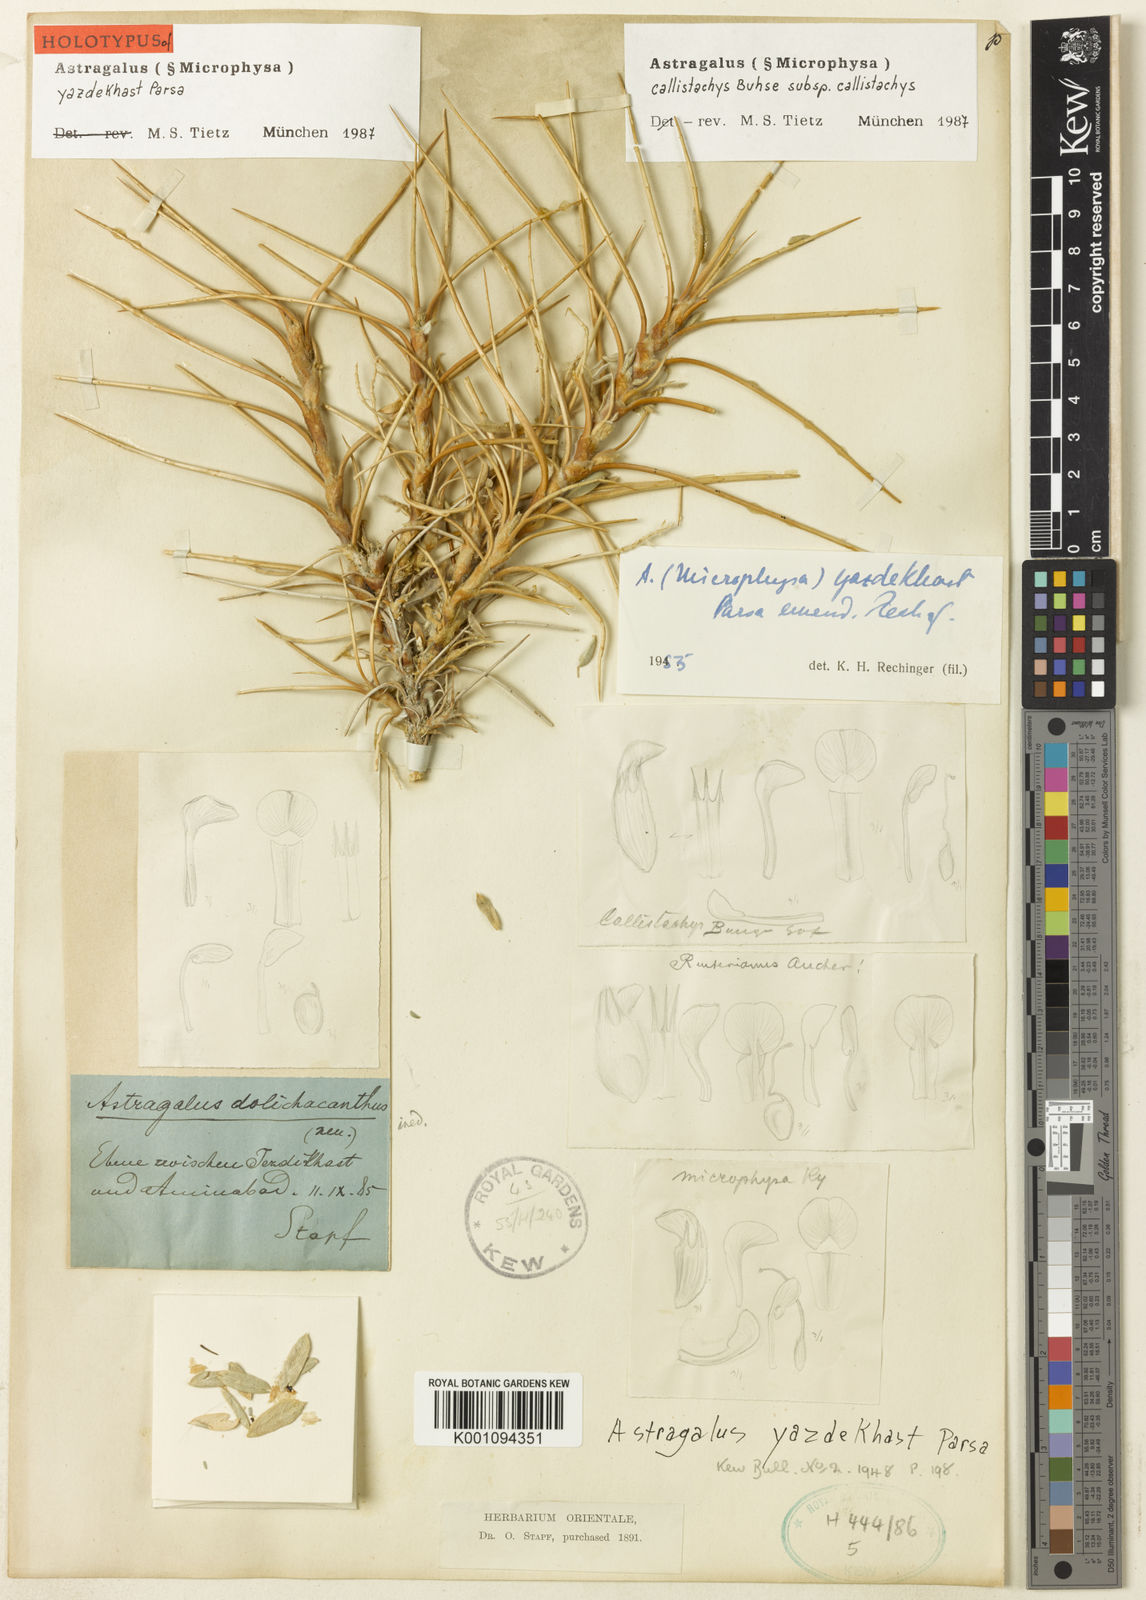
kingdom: Plantae
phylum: Tracheophyta
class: Magnoliopsida
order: Fabales
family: Fabaceae
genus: Astragalus
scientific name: Astragalus callistachys
